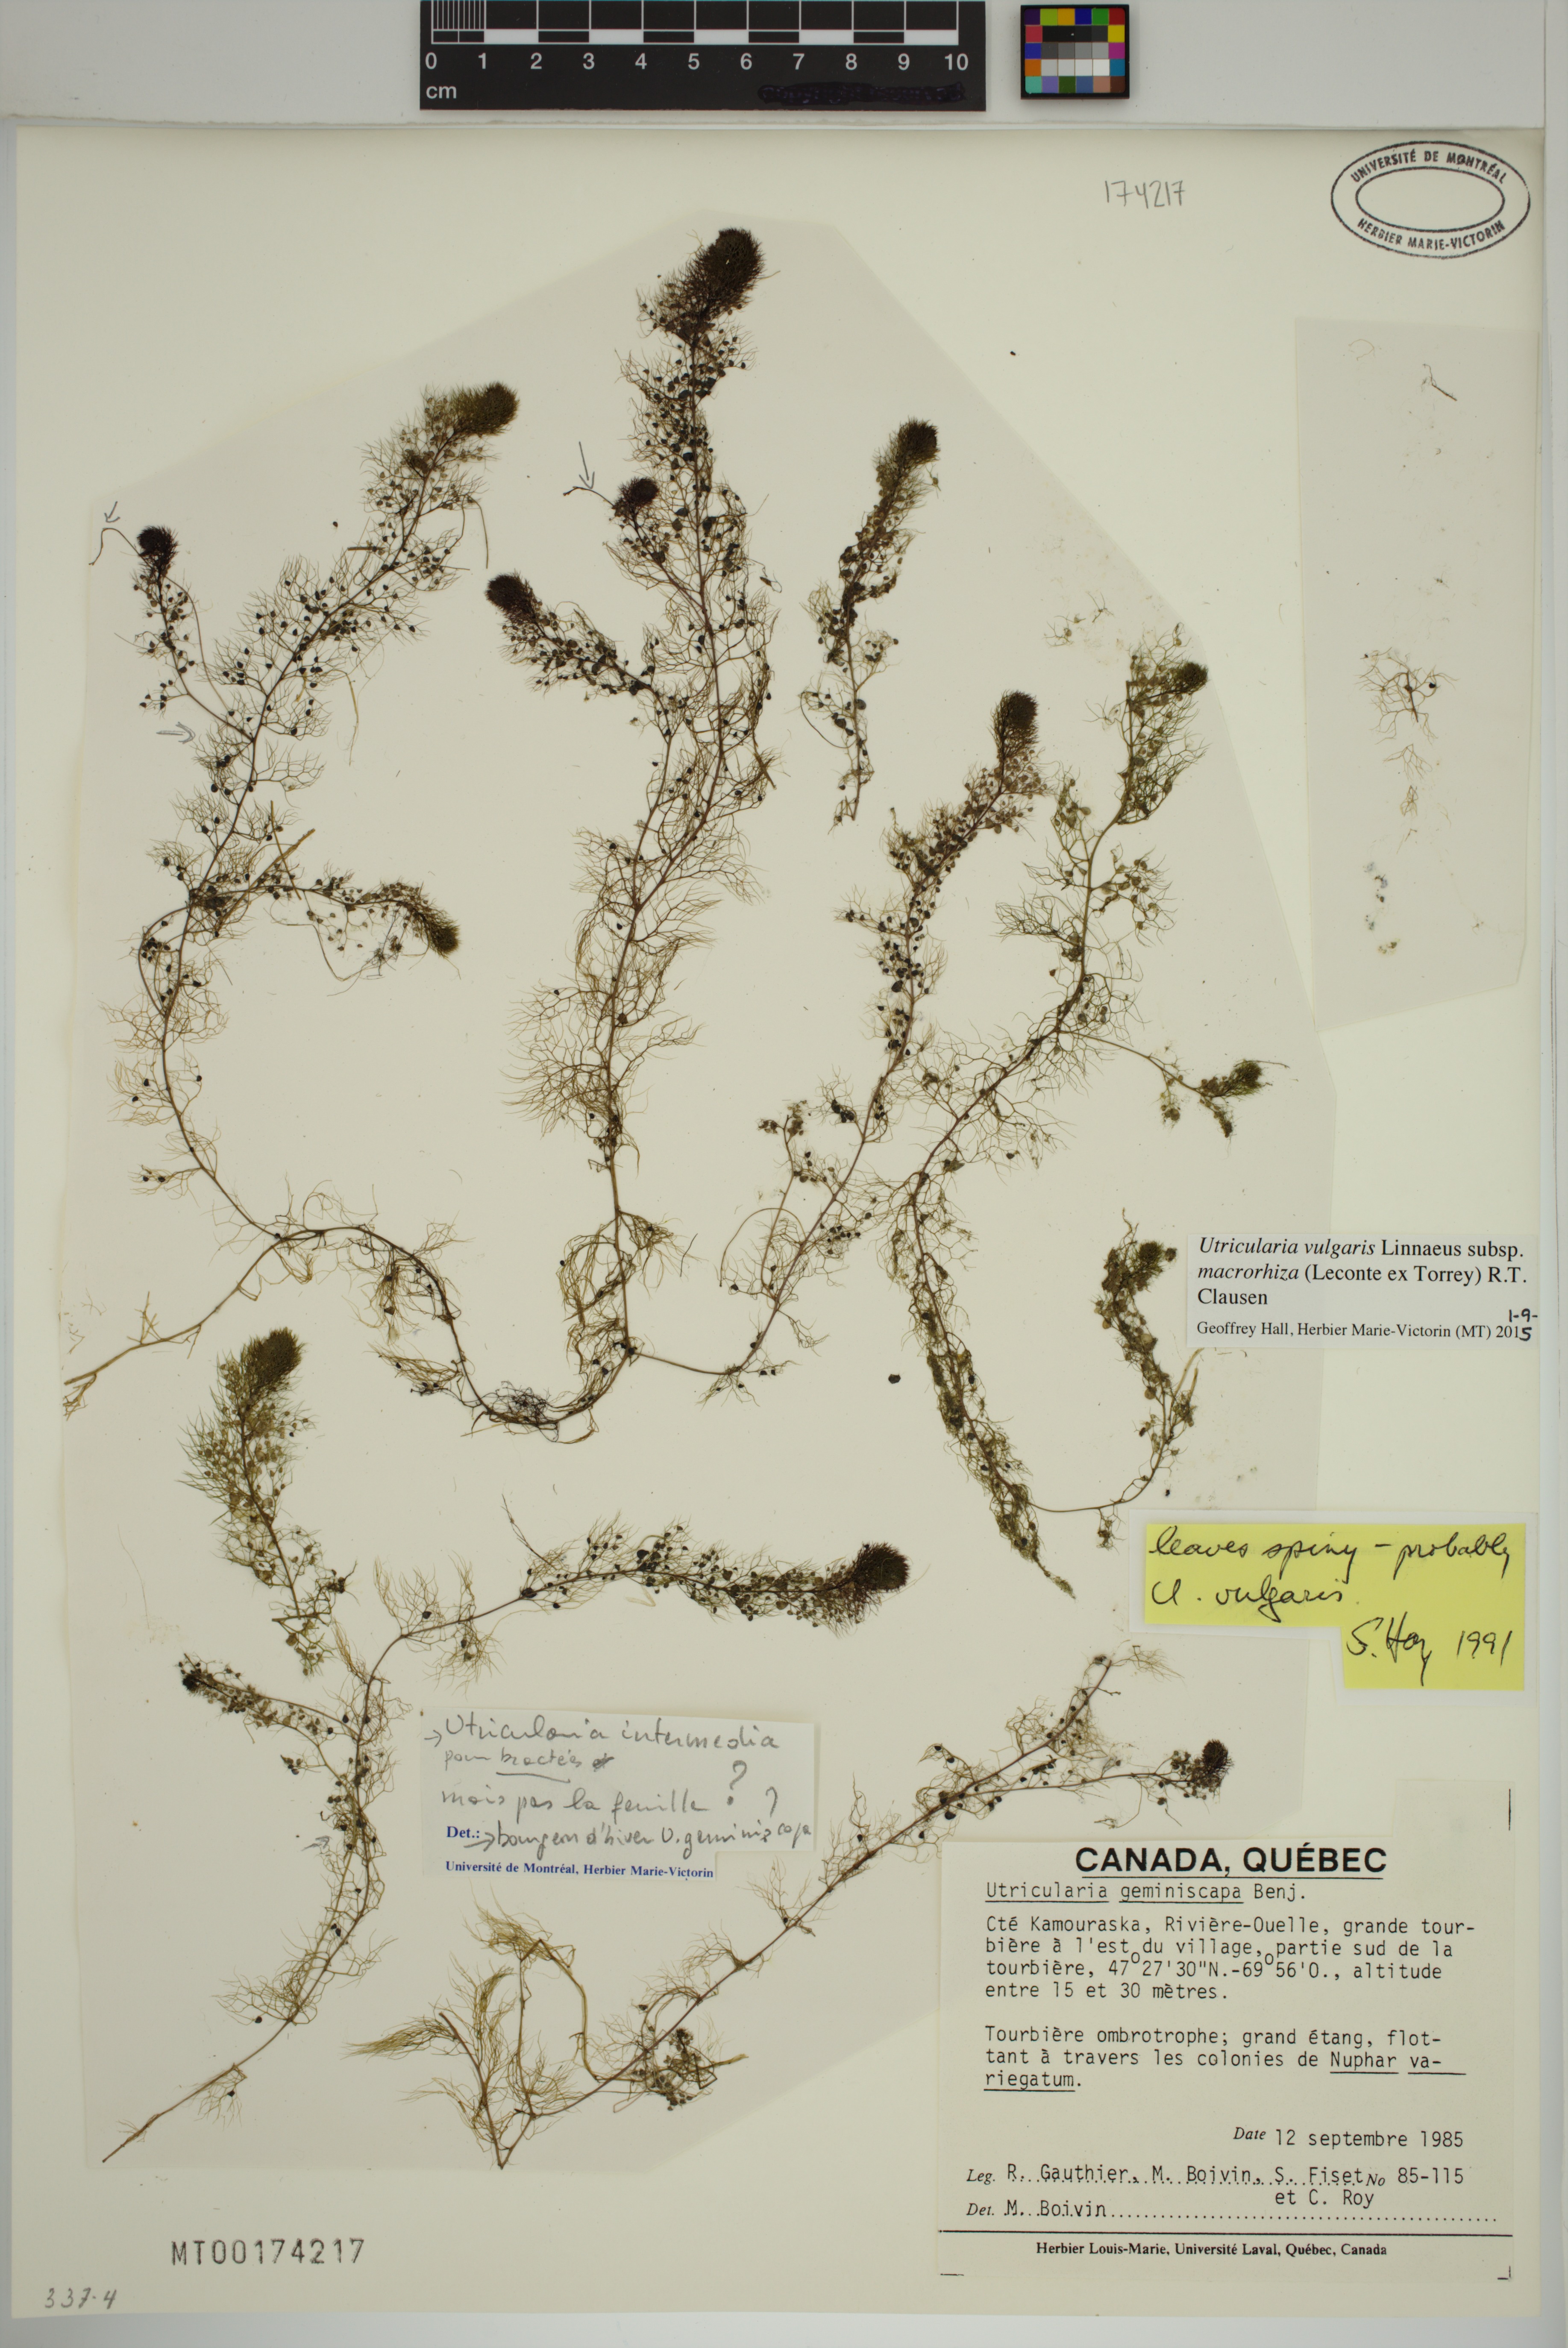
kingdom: Plantae
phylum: Tracheophyta
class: Magnoliopsida
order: Lamiales
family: Lentibulariaceae
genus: Utricularia
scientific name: Utricularia macrorhiza
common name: Common bladderwort
